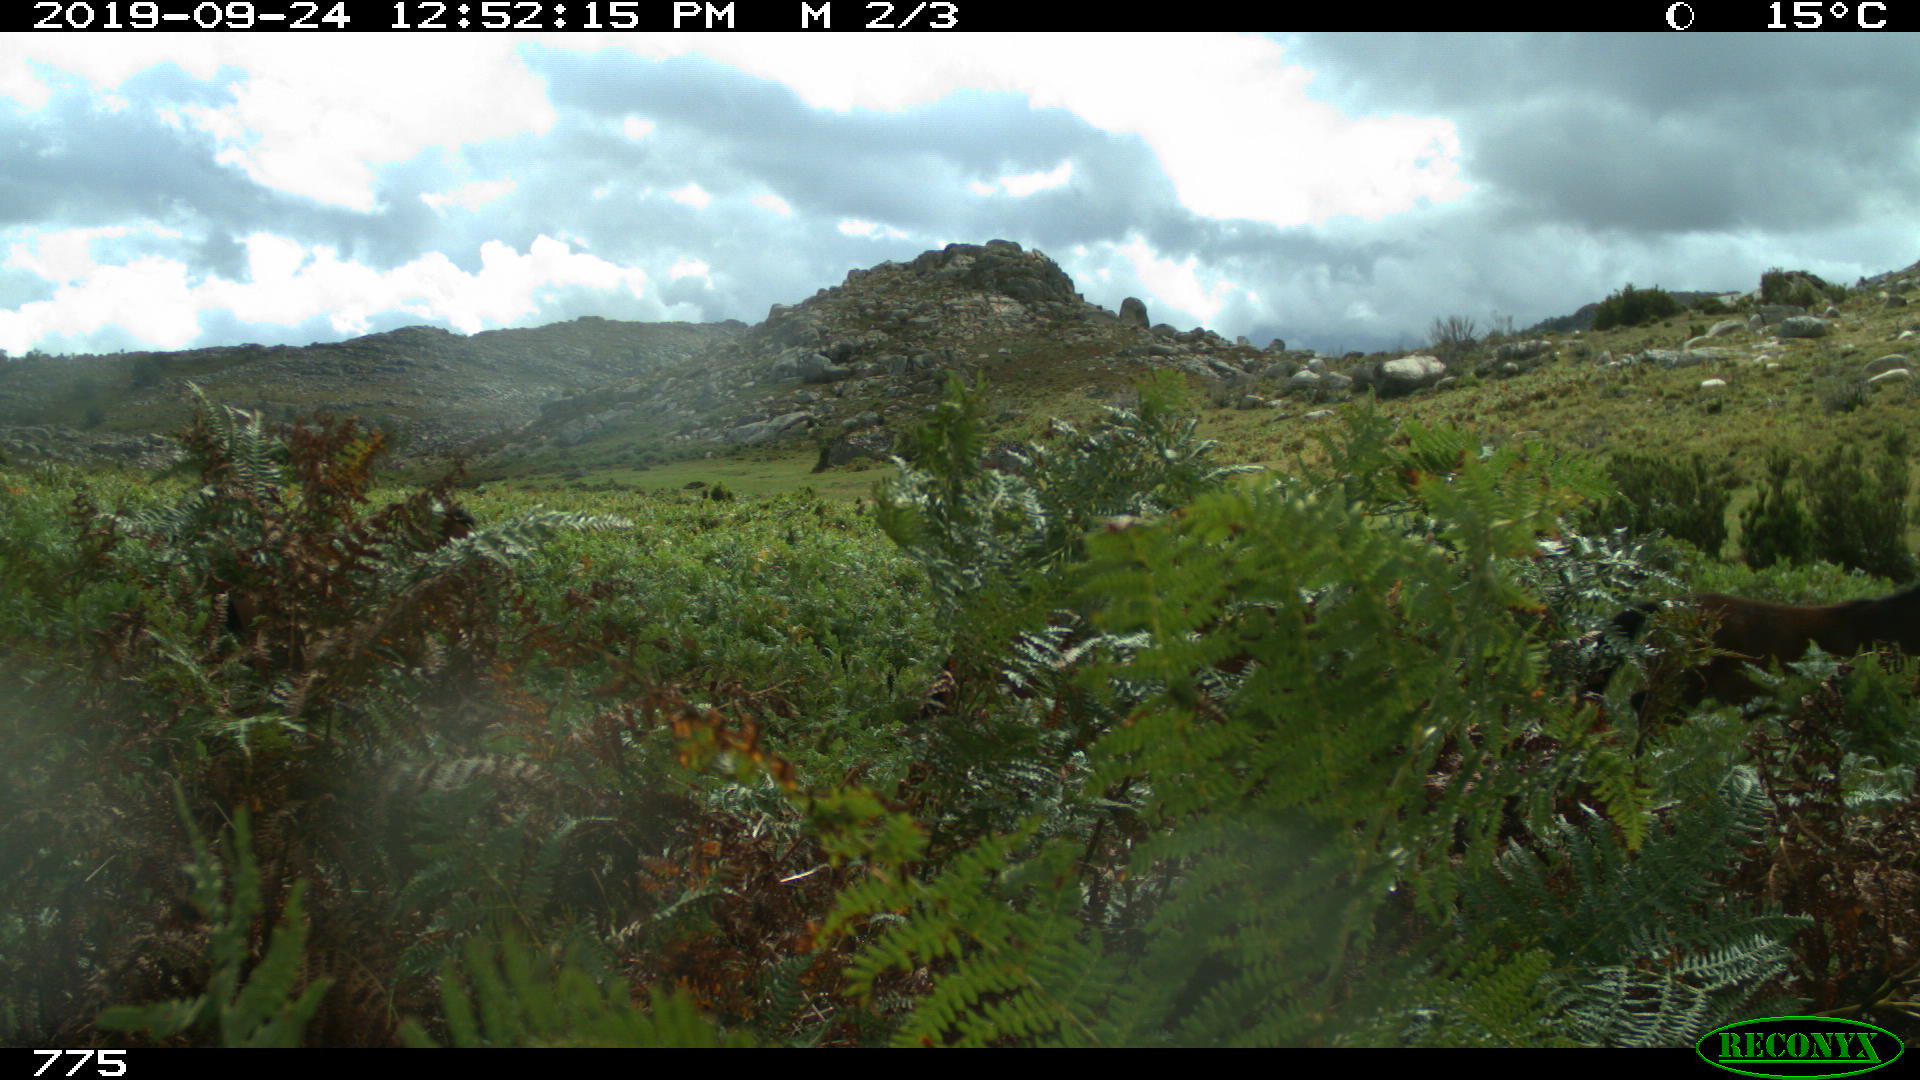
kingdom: Animalia
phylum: Chordata
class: Mammalia
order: Perissodactyla
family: Equidae
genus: Equus
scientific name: Equus caballus
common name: Horse
